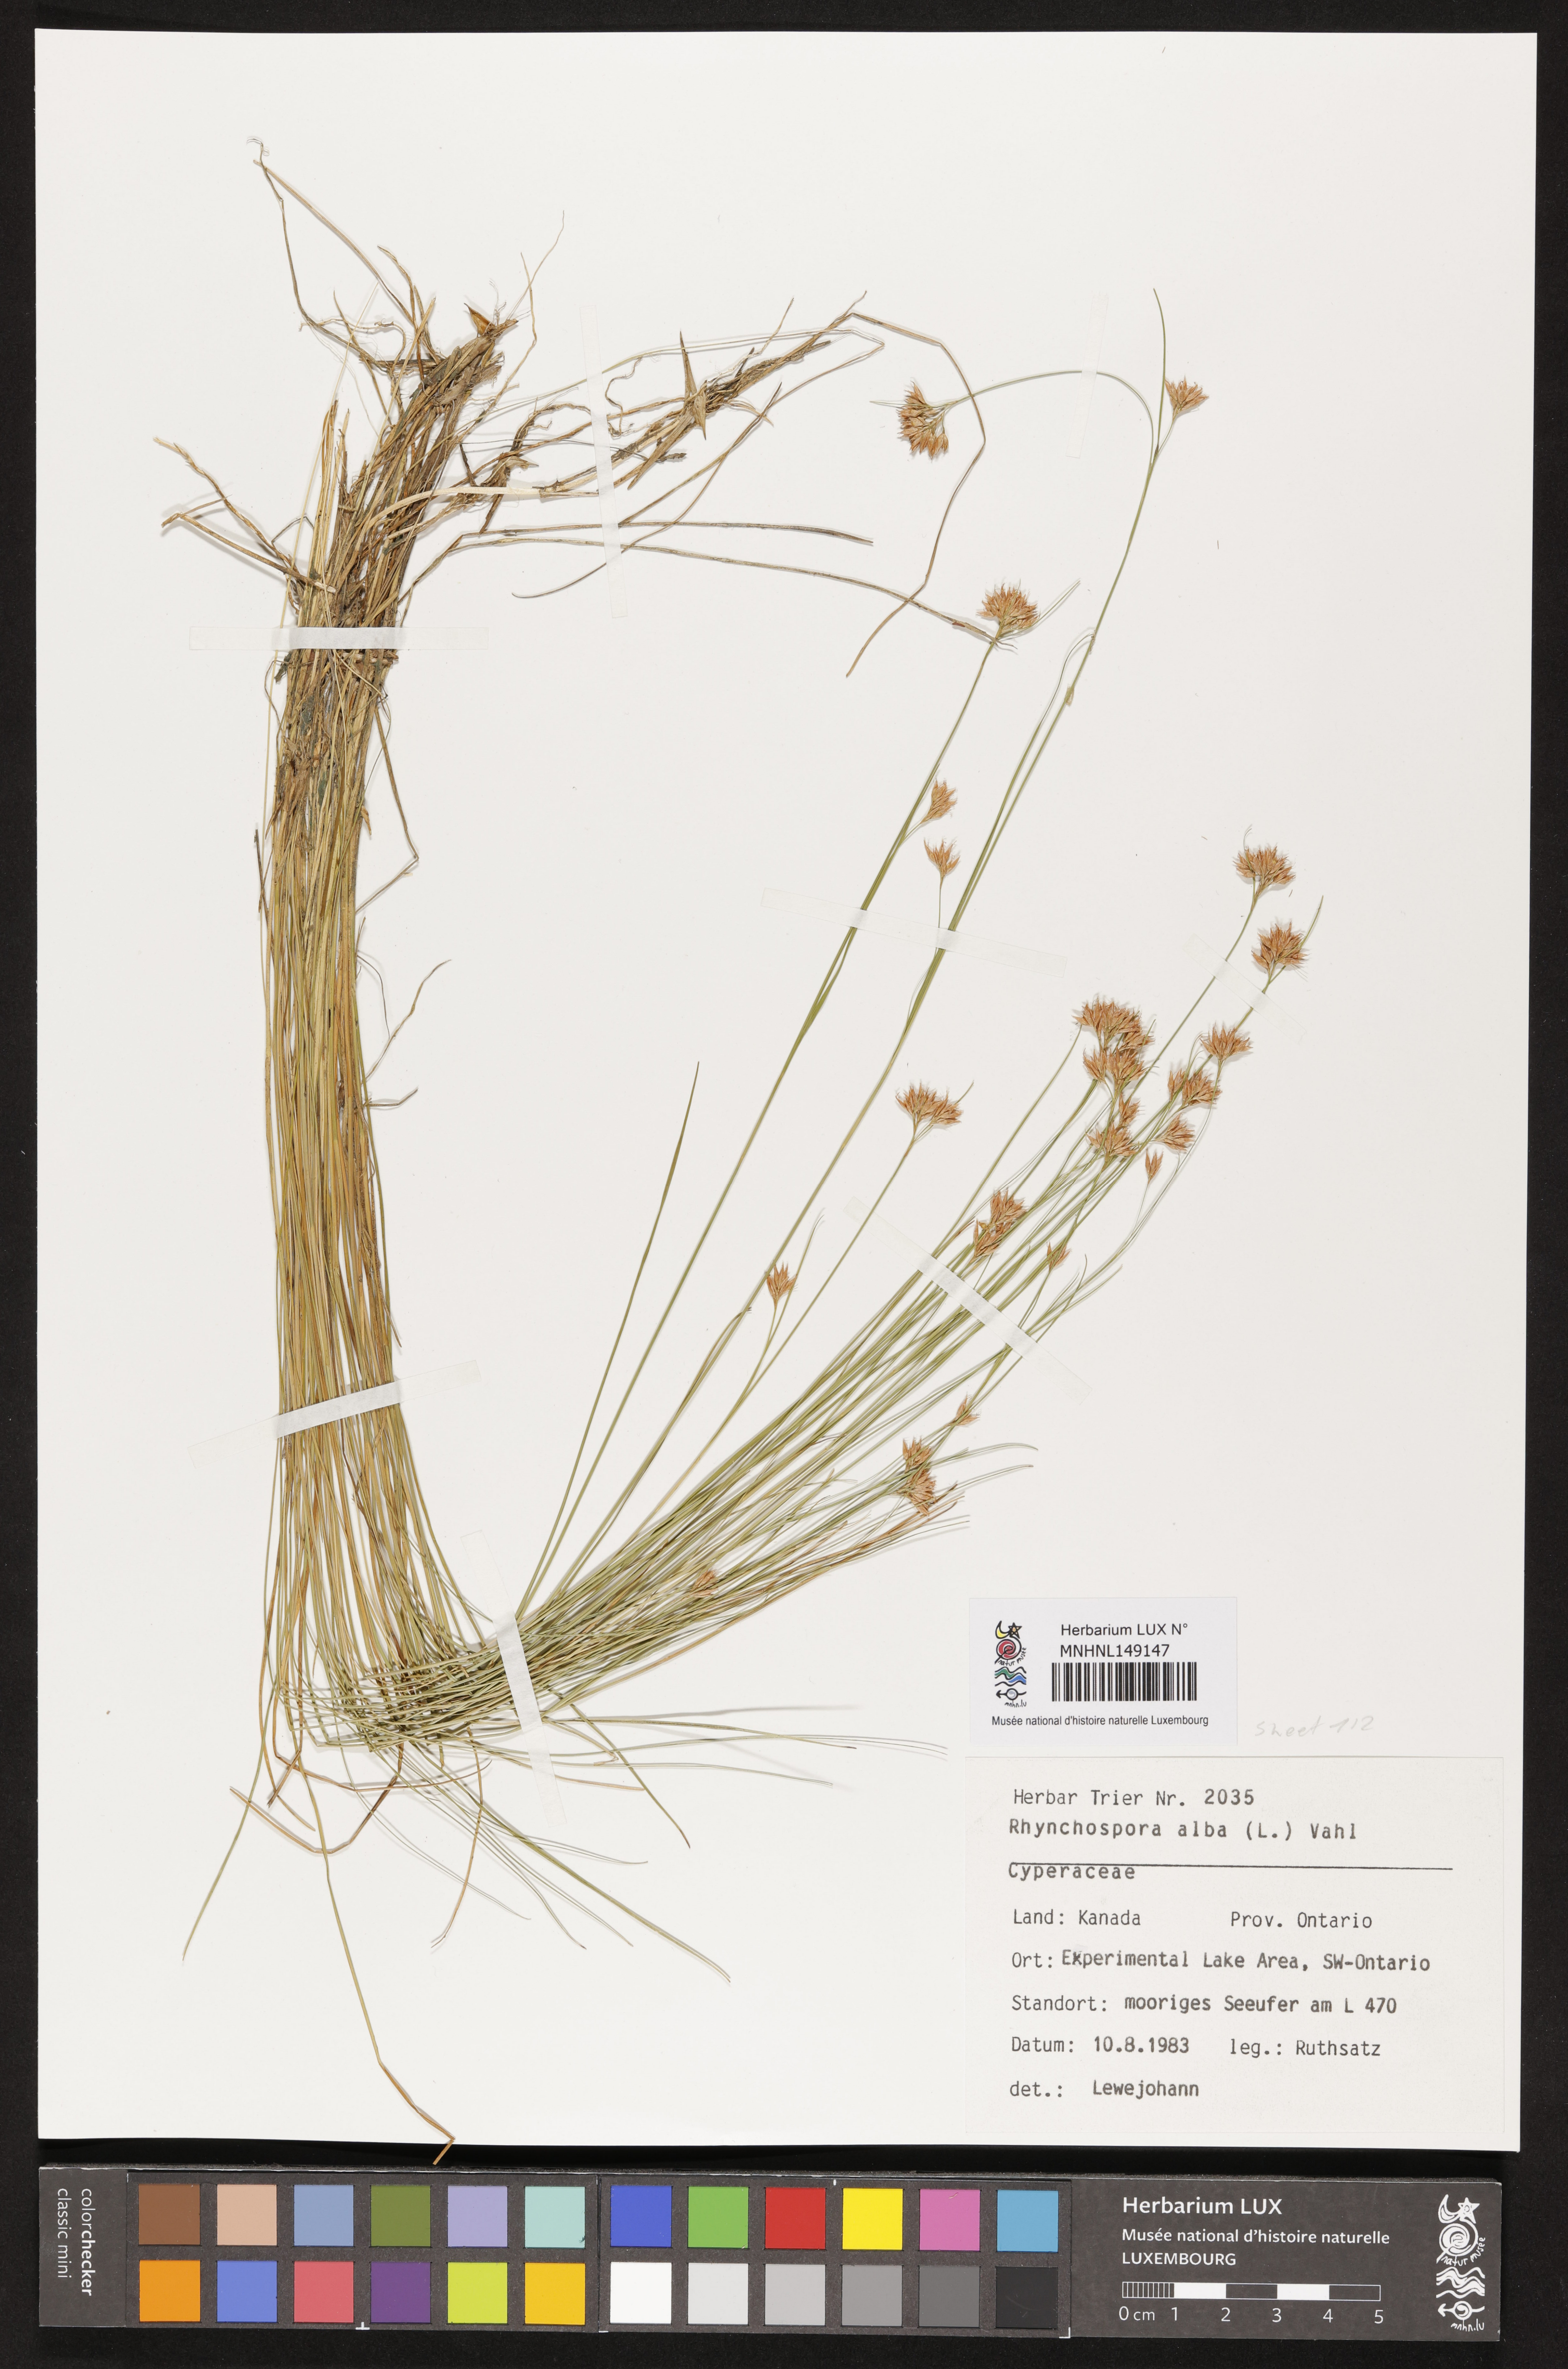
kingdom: Plantae
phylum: Tracheophyta
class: Liliopsida
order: Poales
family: Cyperaceae
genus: Rhynchospora
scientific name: Rhynchospora alba
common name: White beak-sedge
